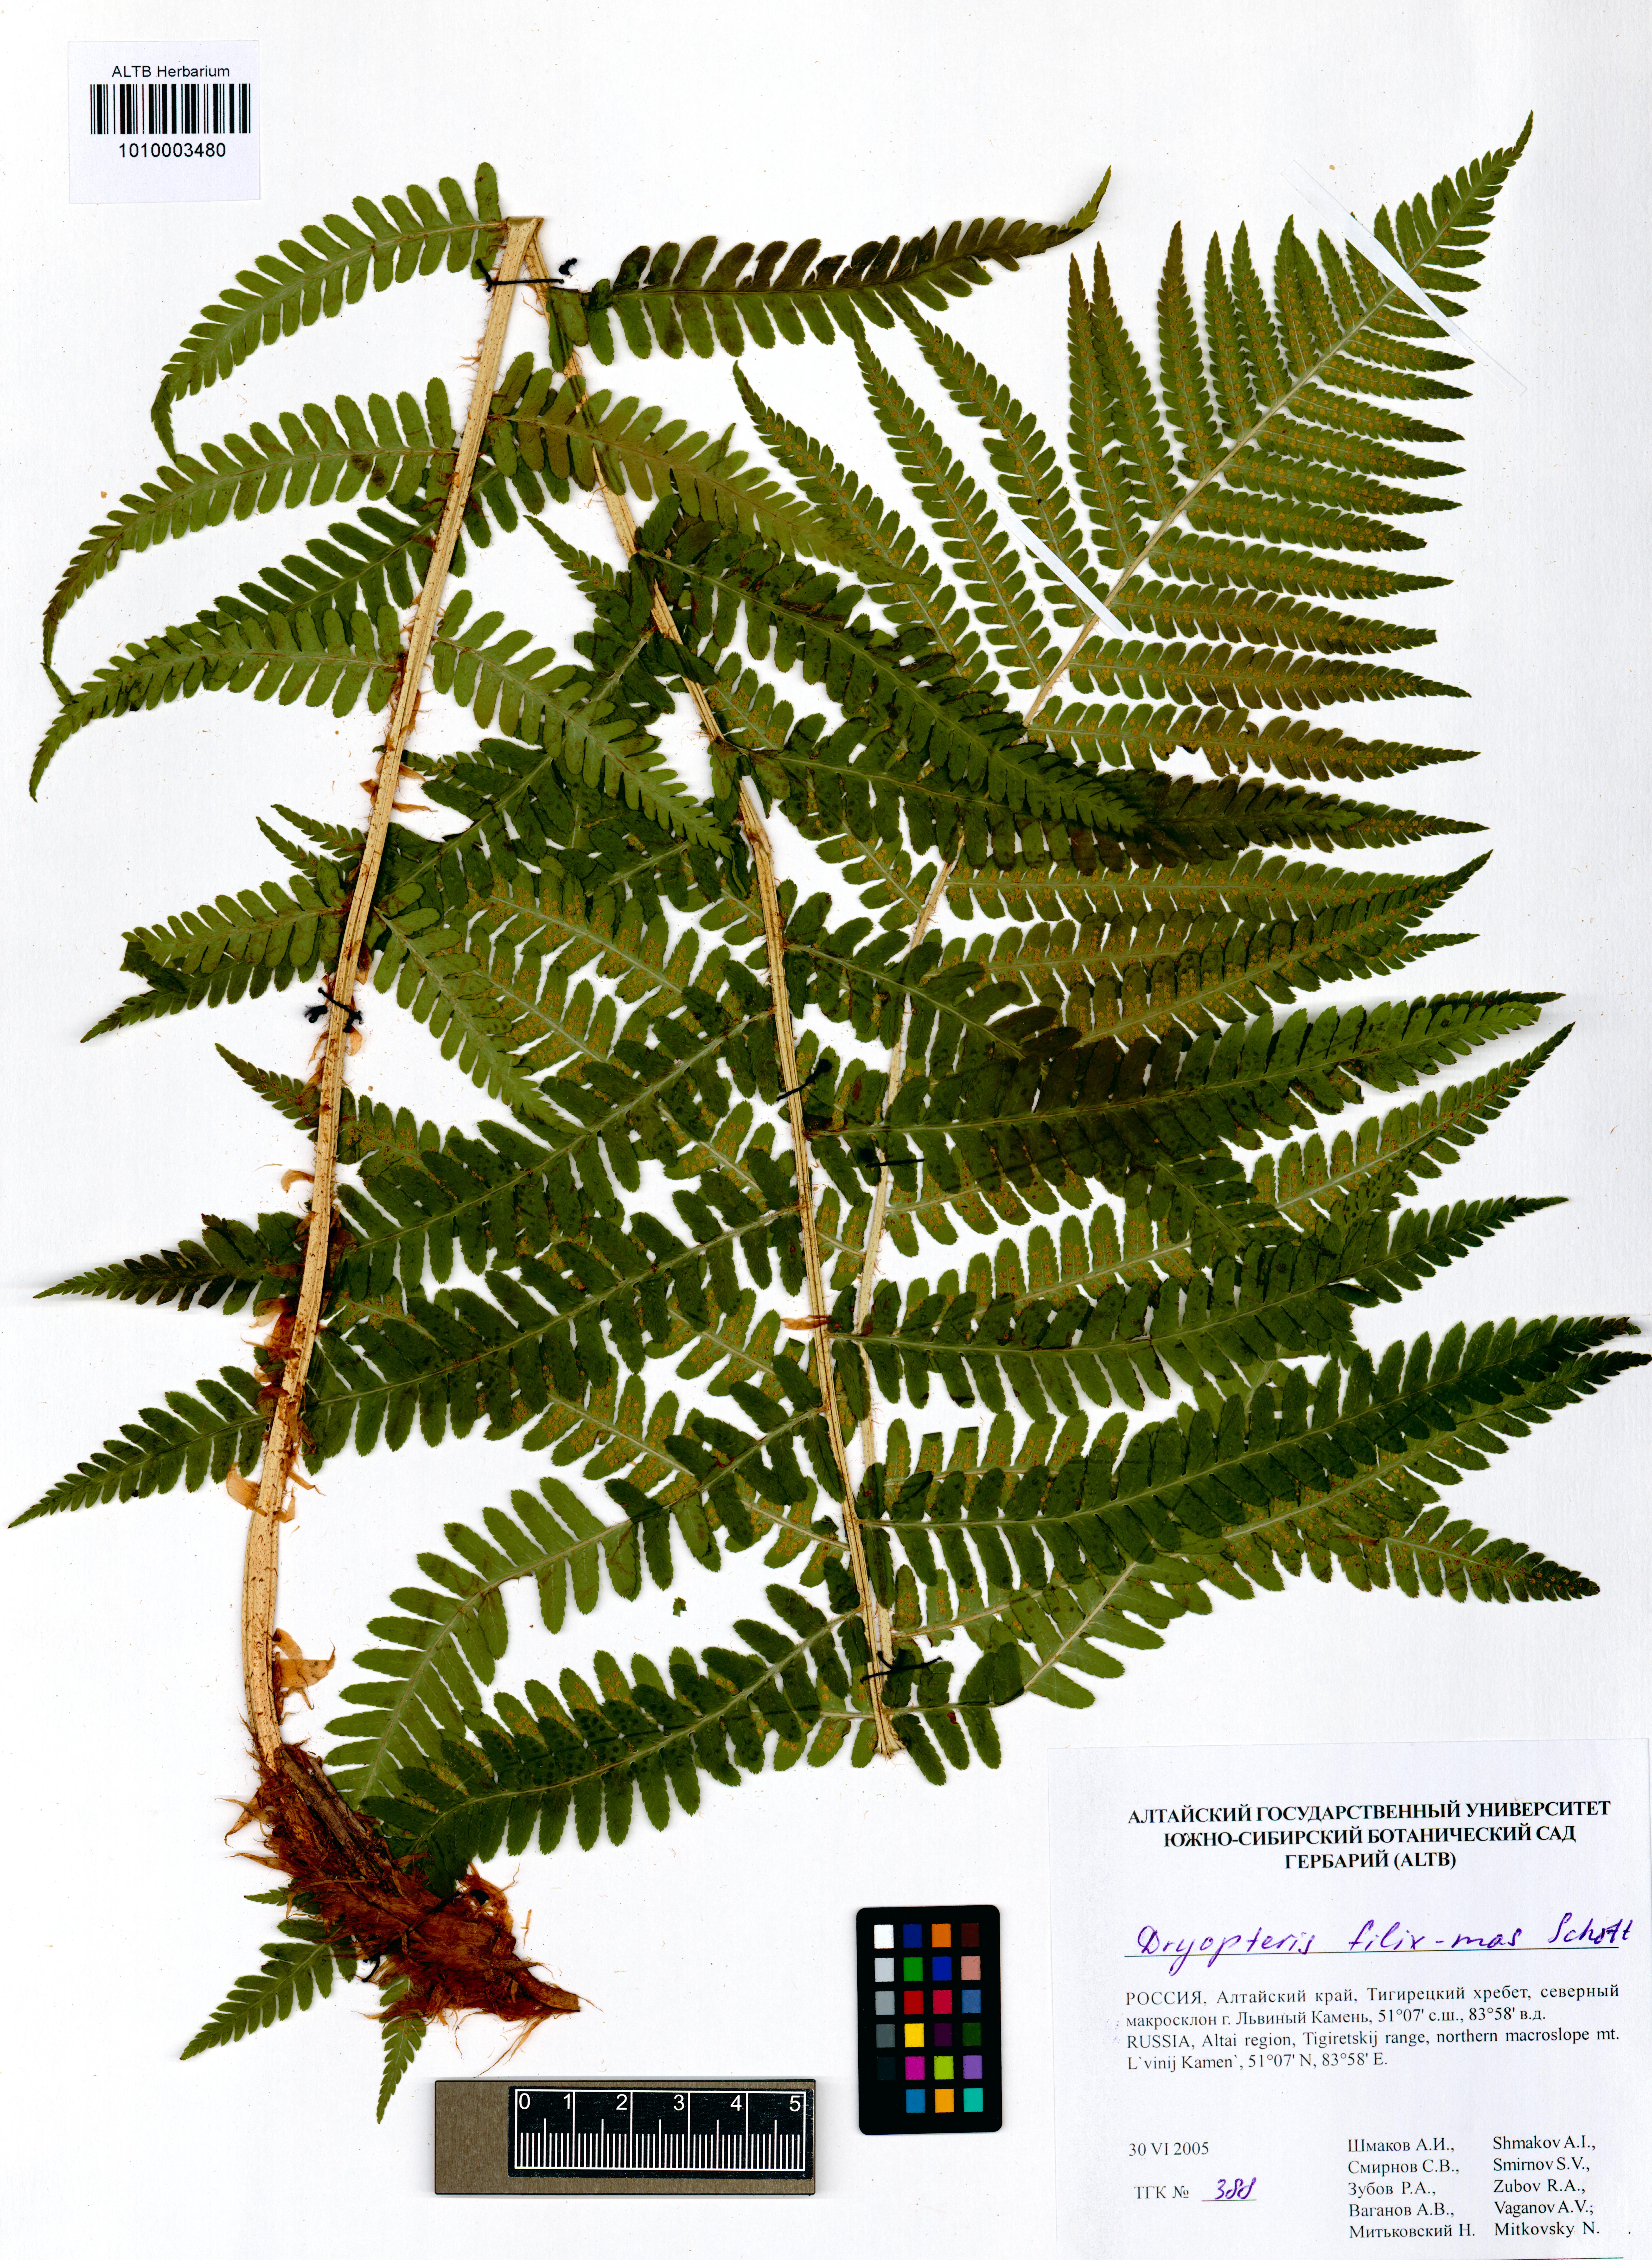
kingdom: Plantae
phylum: Tracheophyta
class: Polypodiopsida
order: Polypodiales
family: Dryopteridaceae
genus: Dryopteris
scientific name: Dryopteris filix-mas
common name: Male fern
